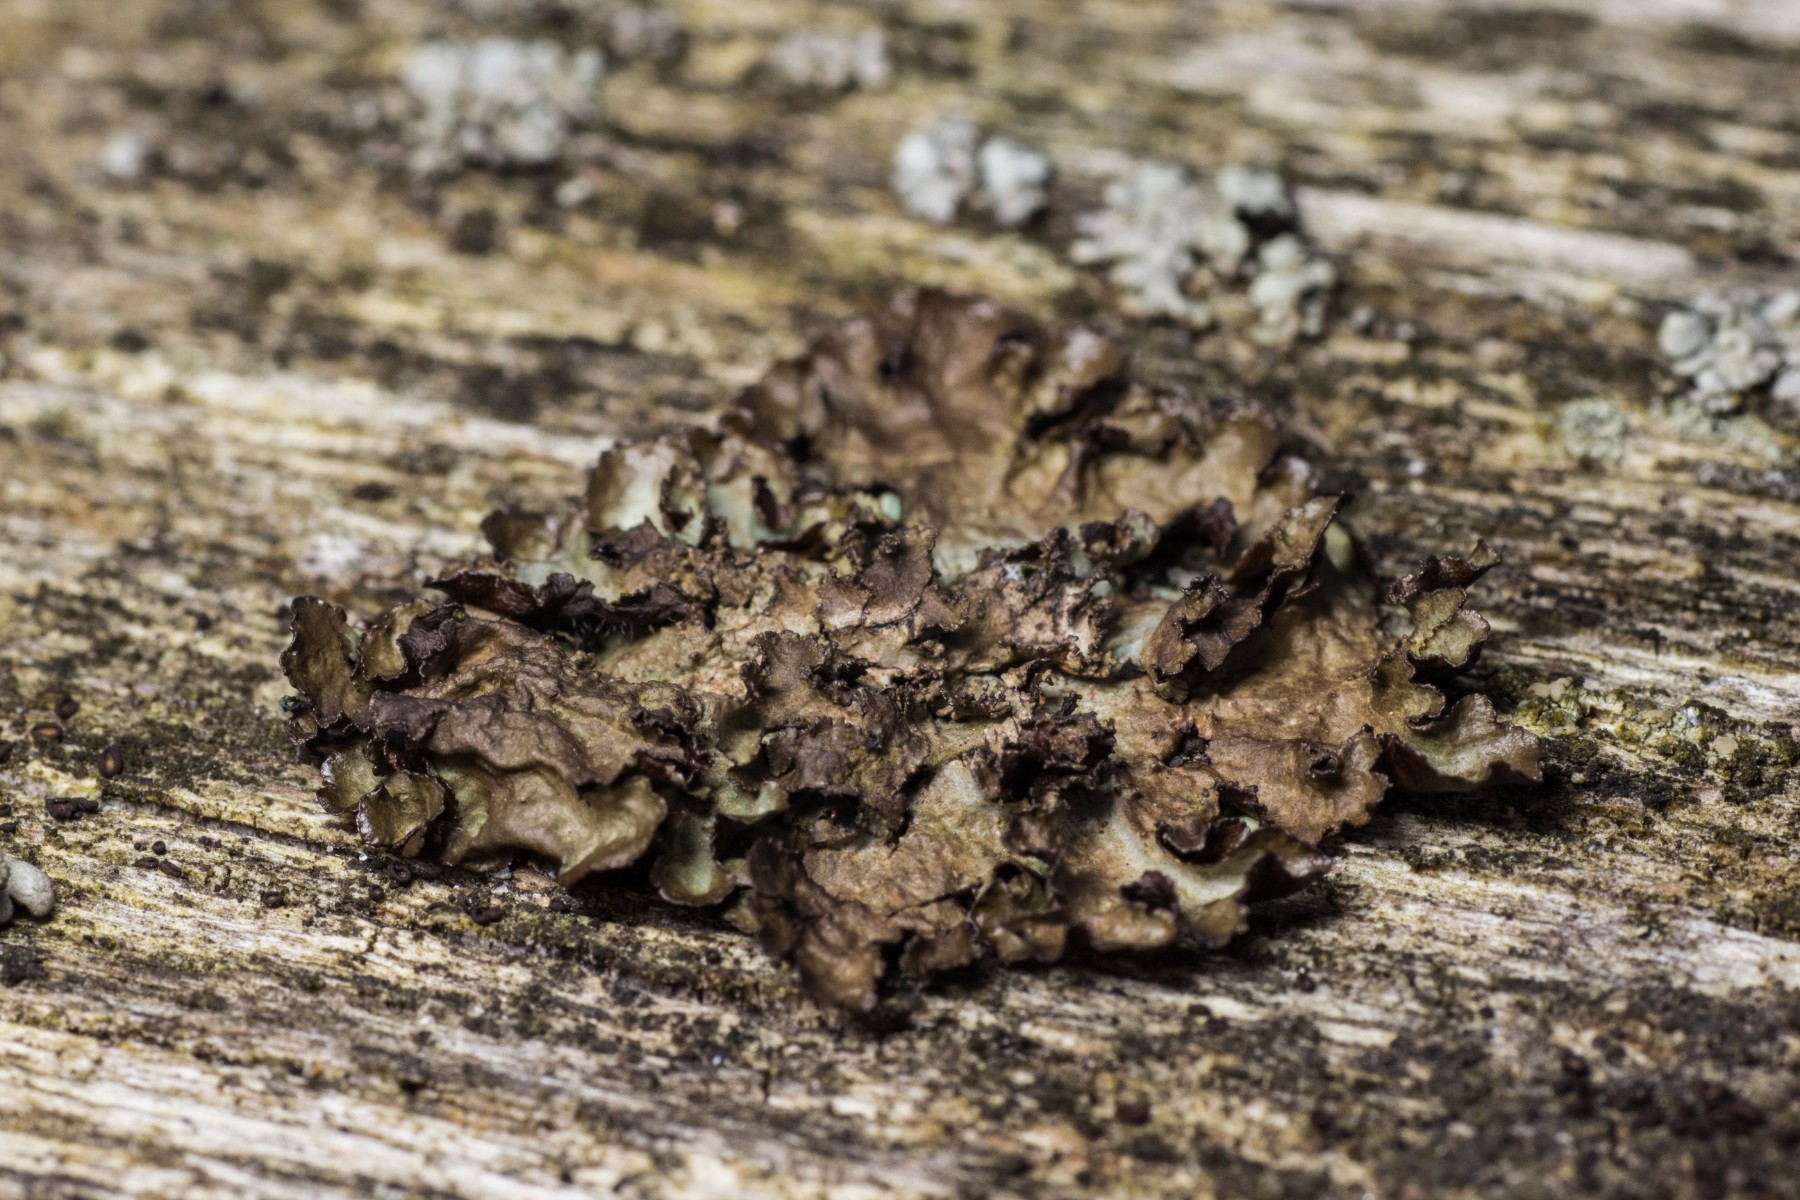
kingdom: Fungi
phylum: Ascomycota
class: Lecanoromycetes
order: Lecanorales
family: Parmeliaceae
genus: Nephromopsis
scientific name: Nephromopsis chlorophylla
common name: olivenbrun kruslav
